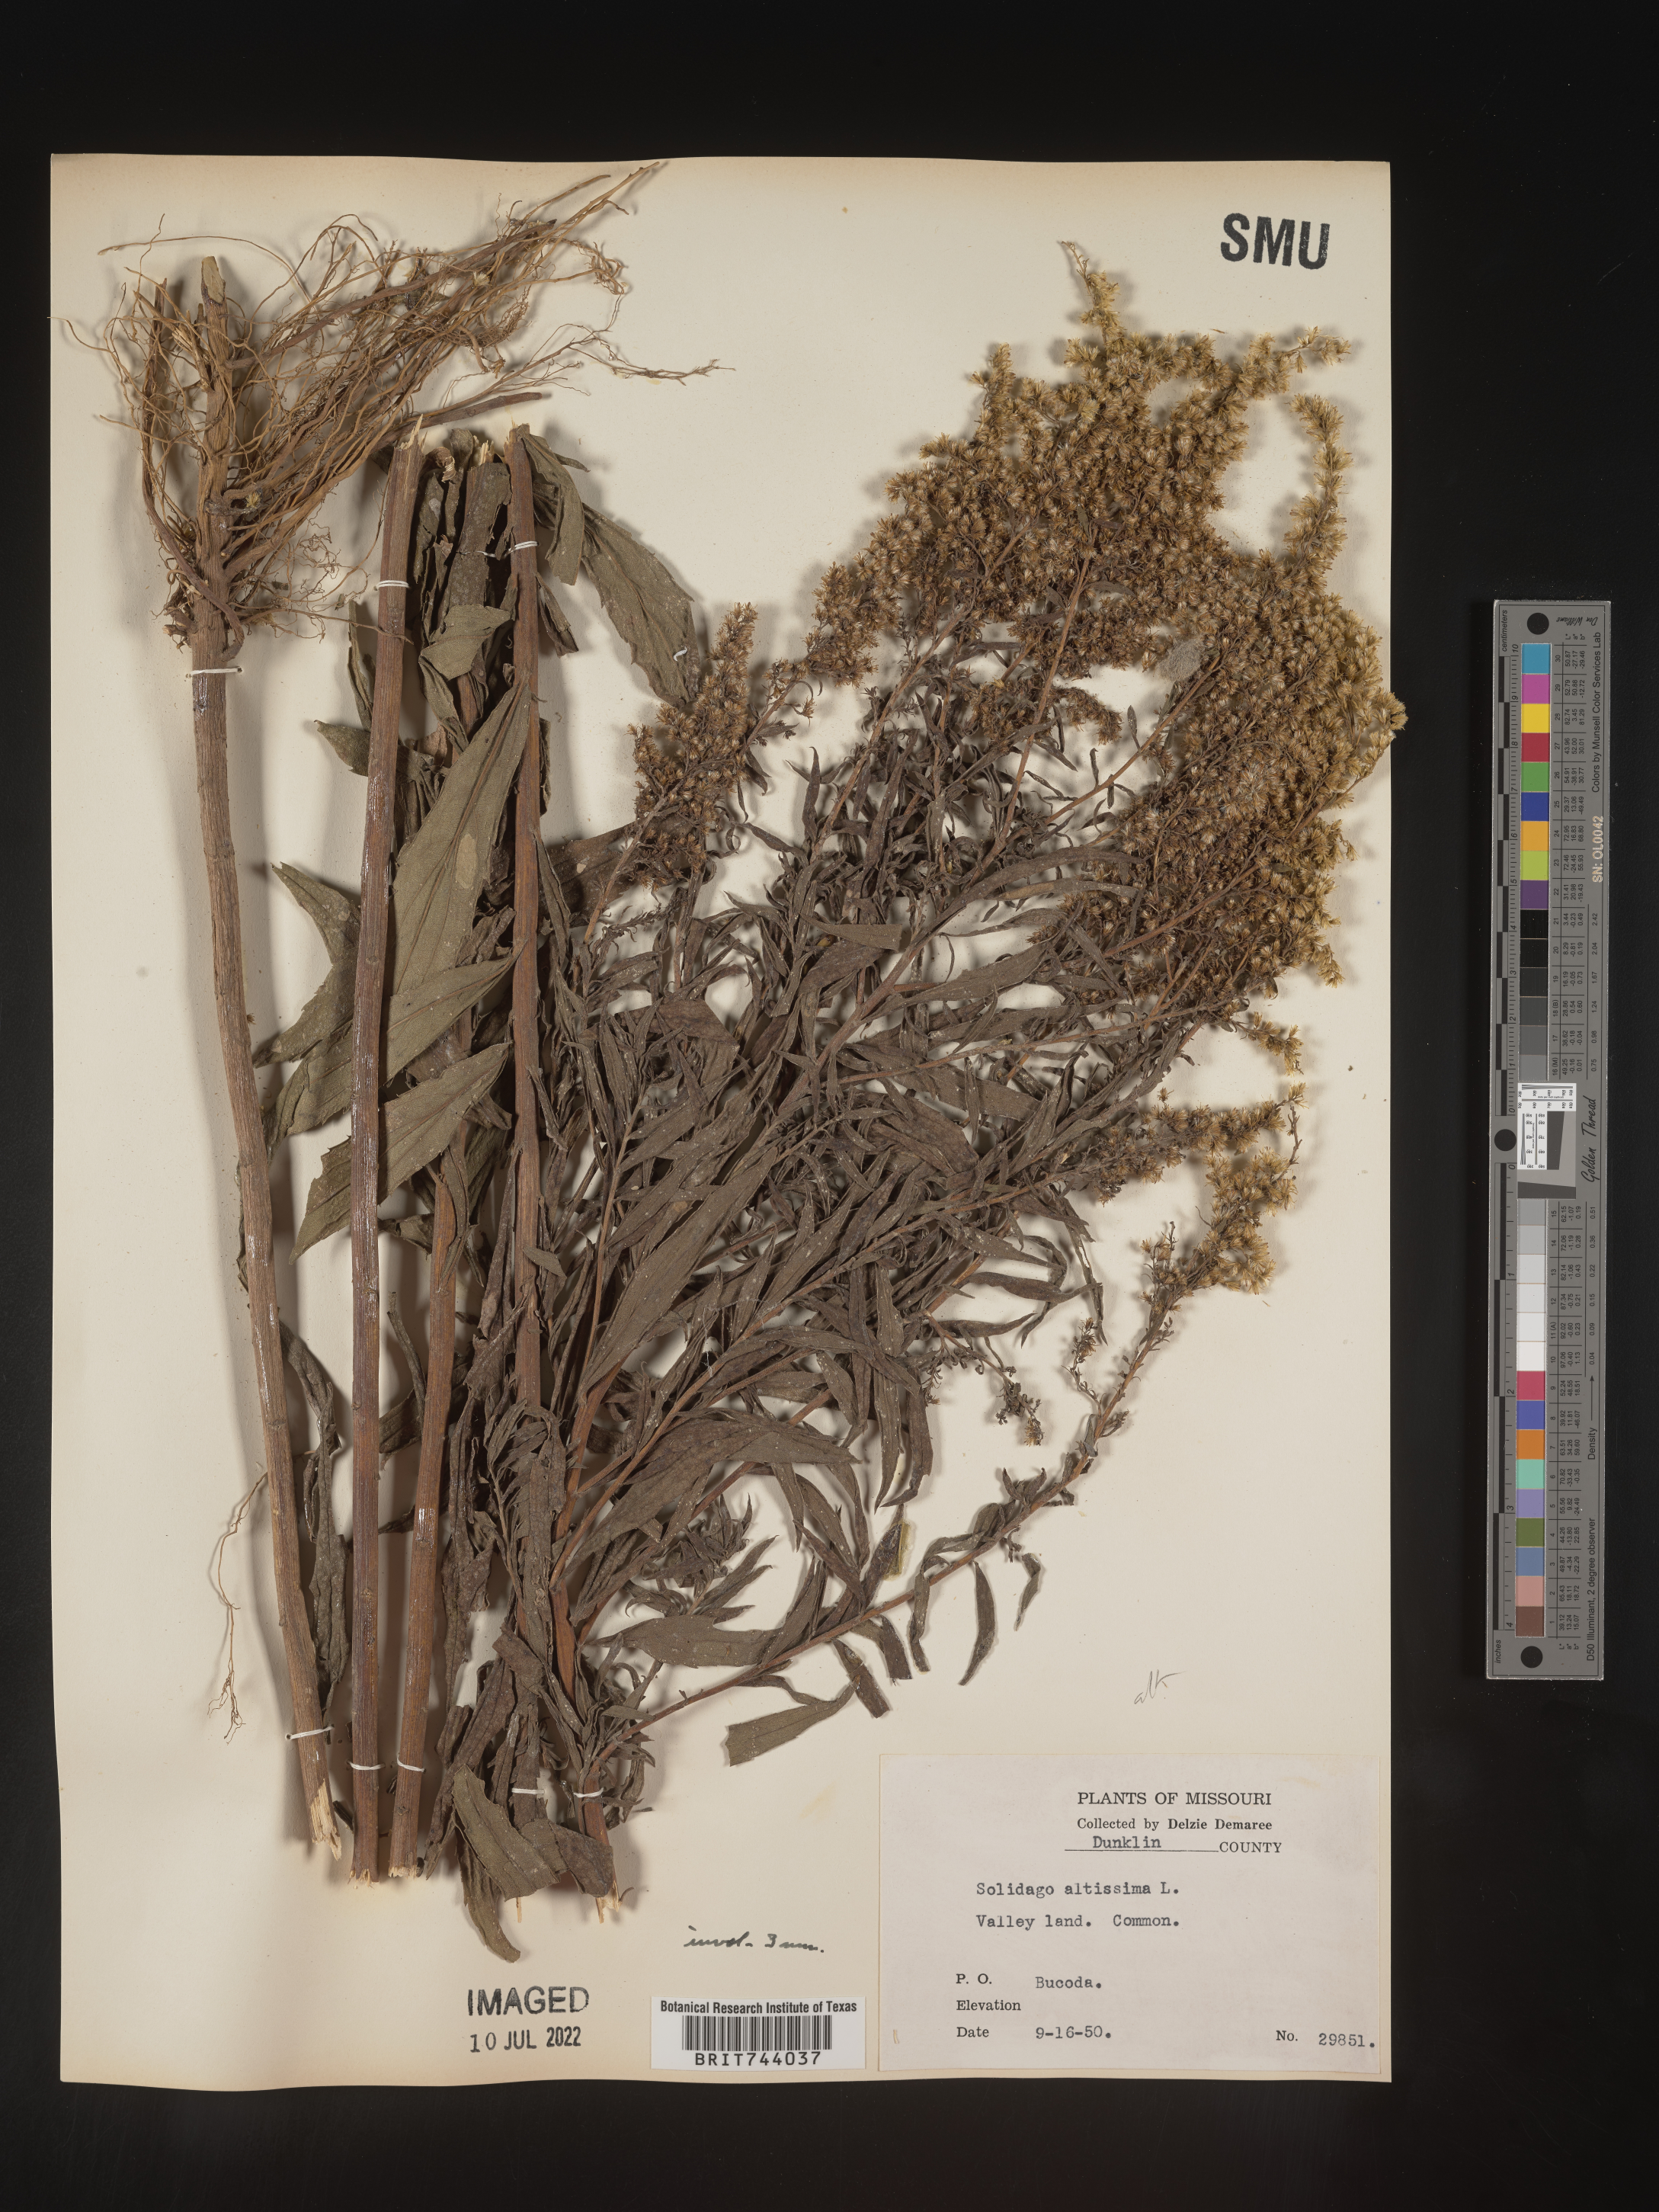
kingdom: Plantae
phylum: Tracheophyta
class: Magnoliopsida
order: Asterales
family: Asteraceae
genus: Solidago
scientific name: Solidago altissima
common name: Late goldenrod
